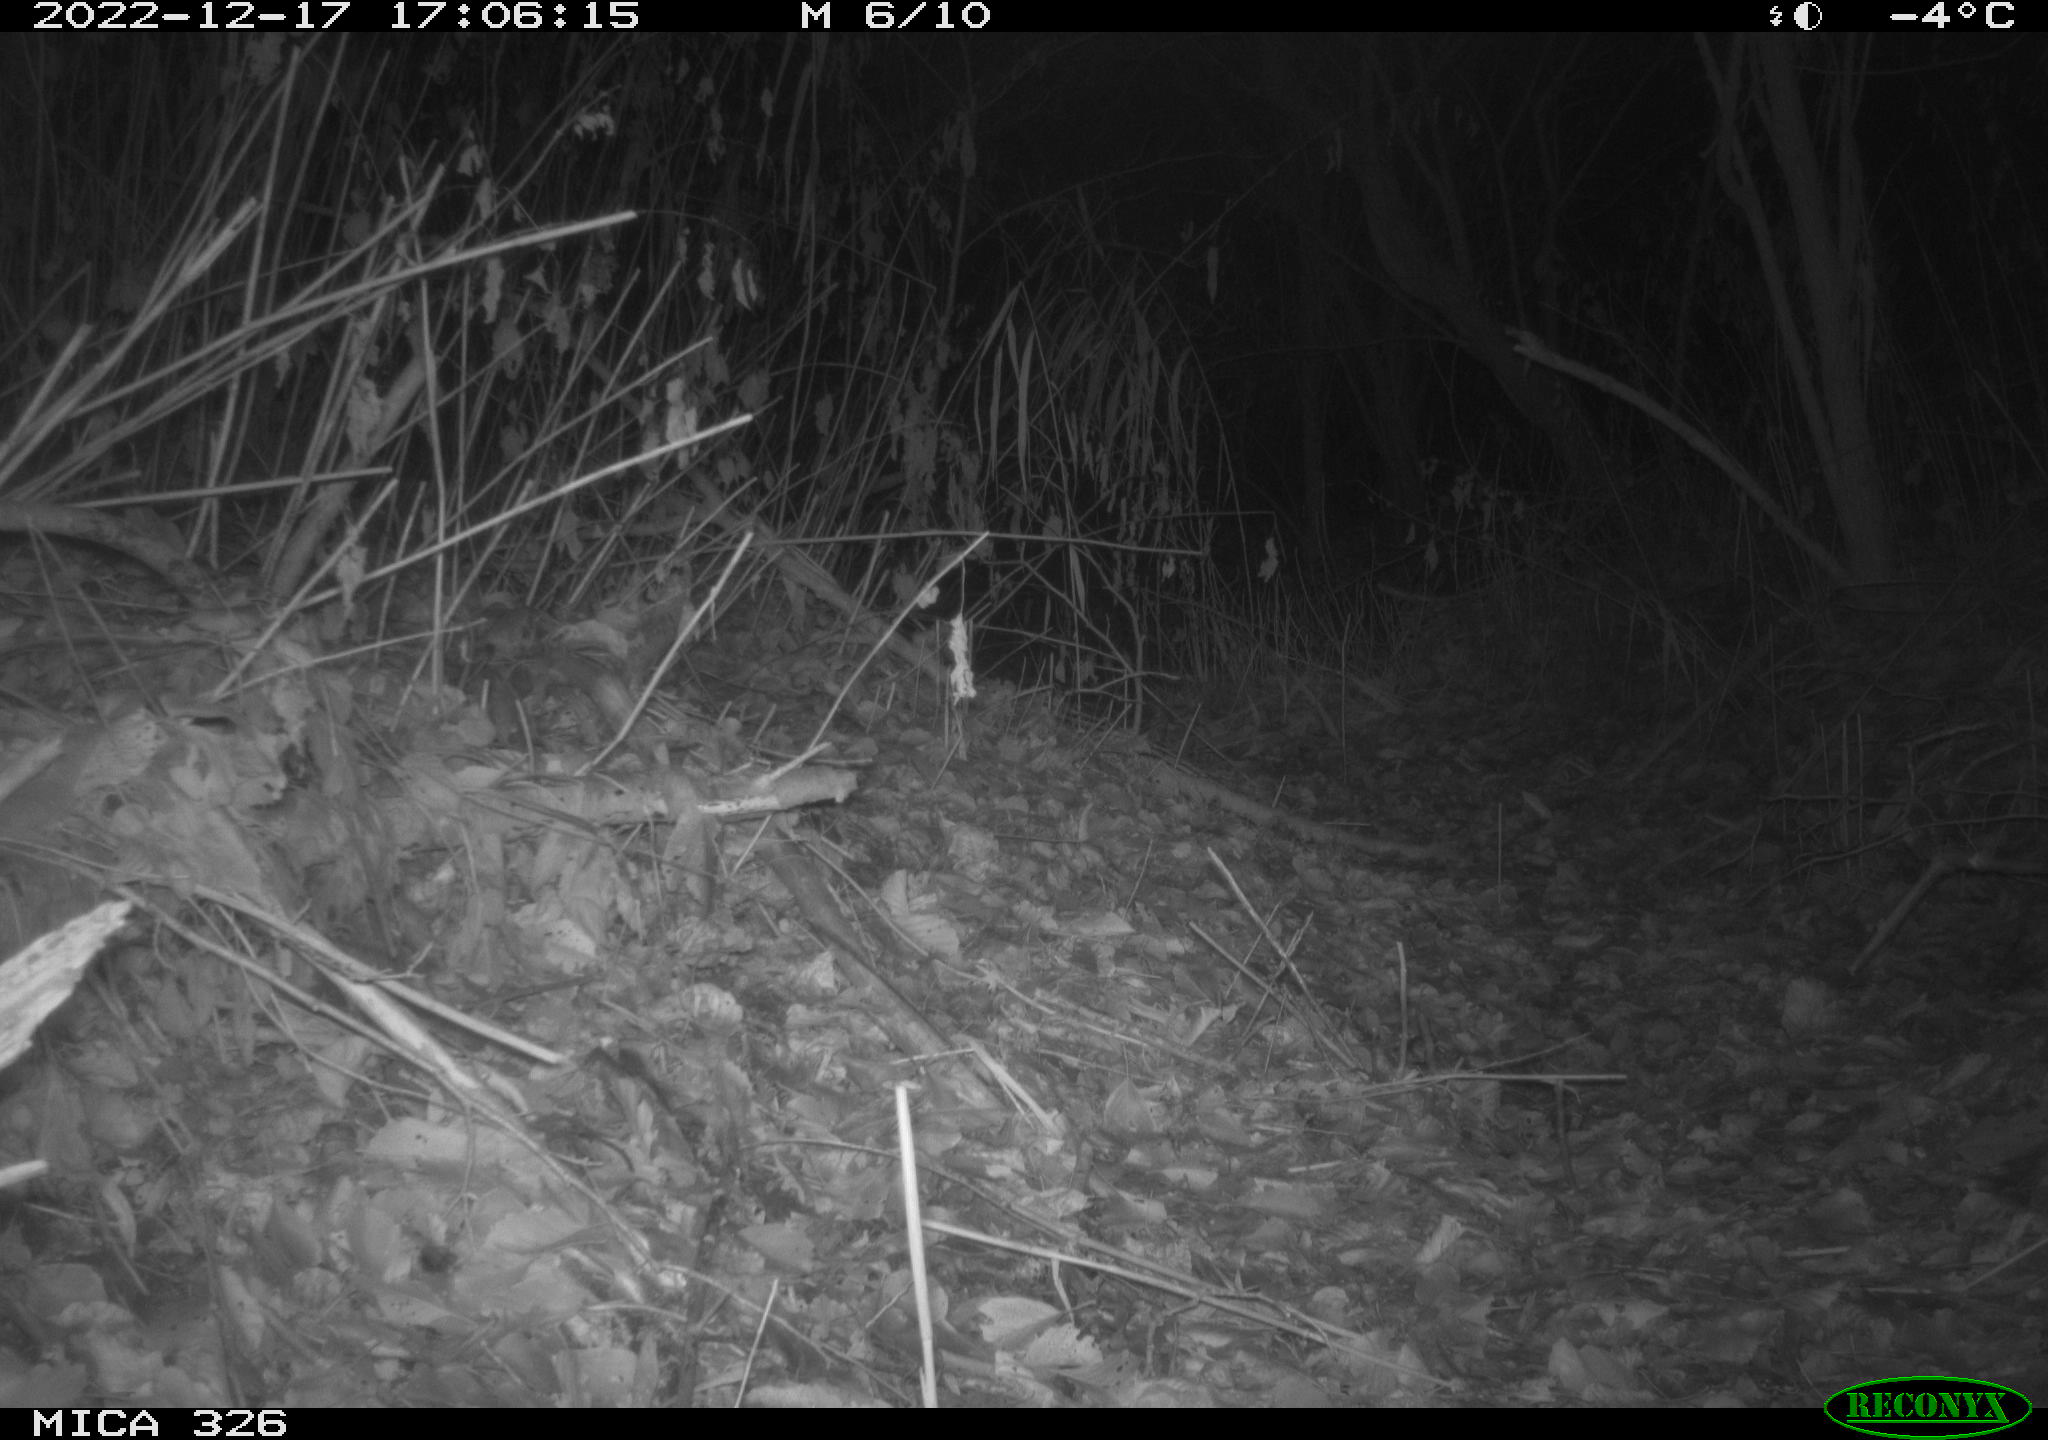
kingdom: Animalia
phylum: Chordata
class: Mammalia
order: Lagomorpha
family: Leporidae
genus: Lepus
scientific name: Lepus europaeus
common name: European hare
